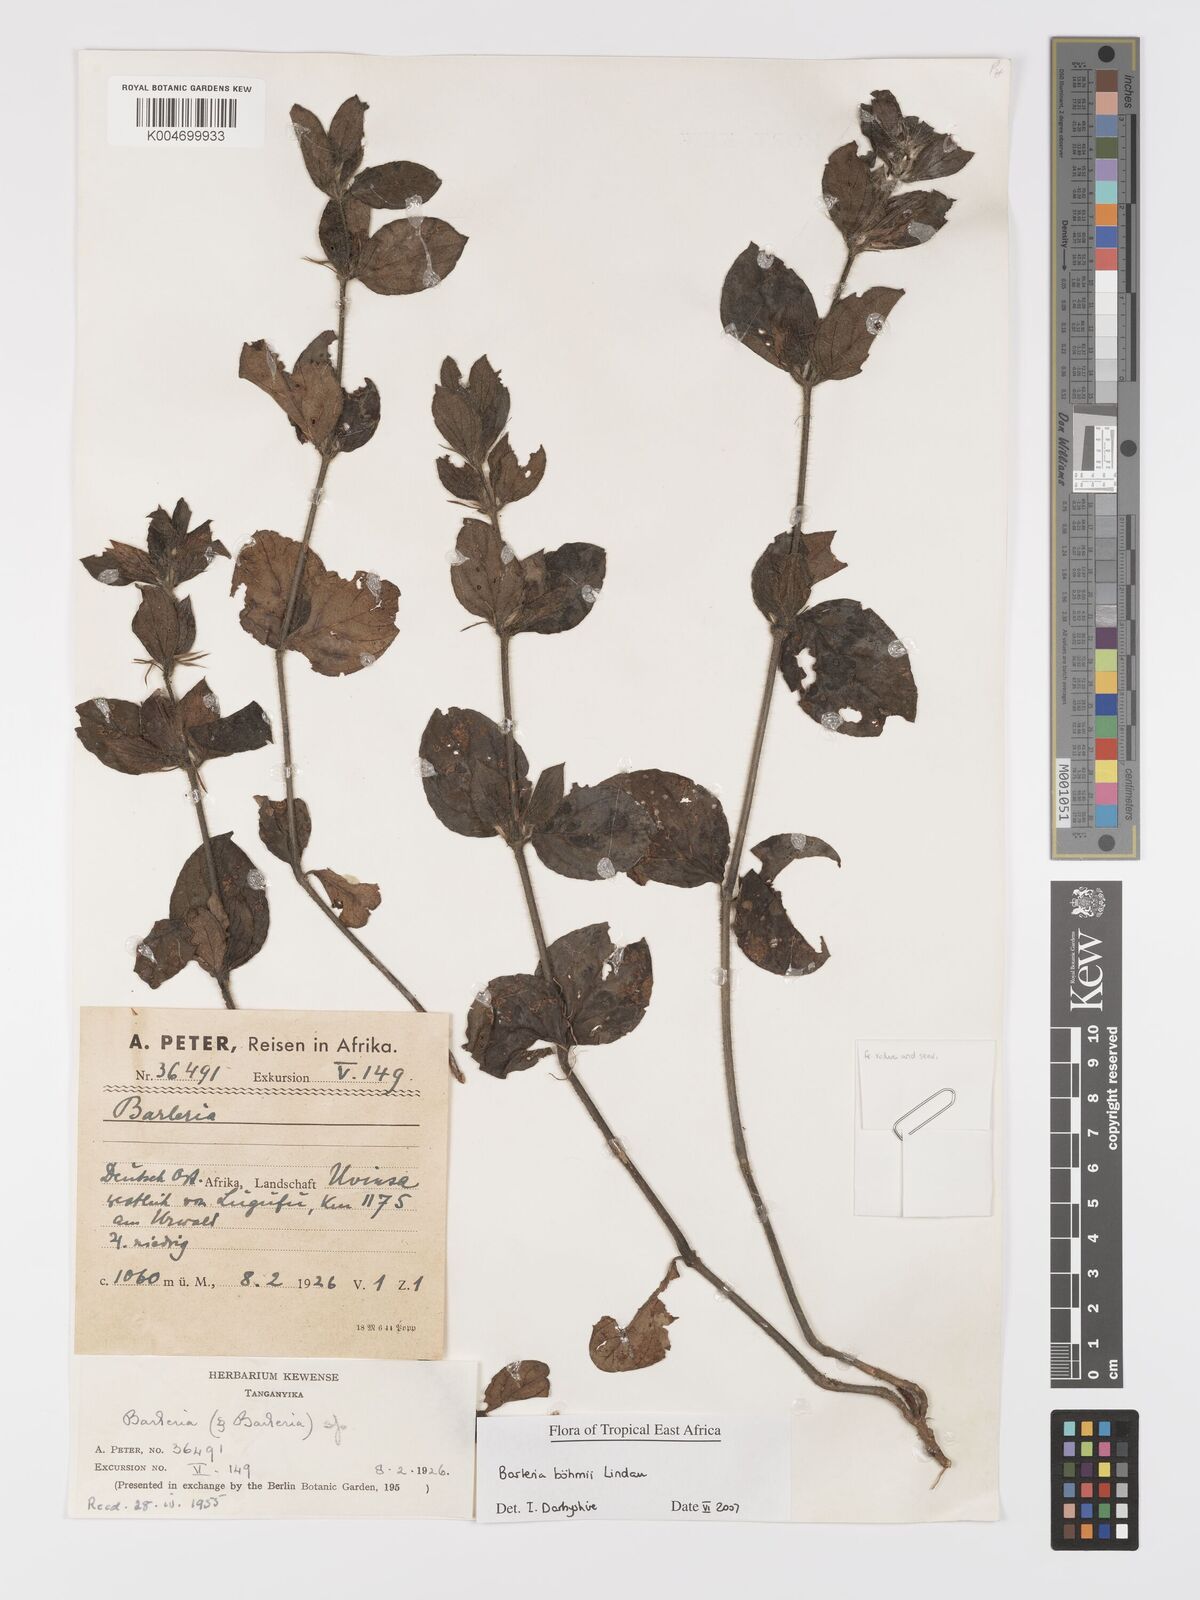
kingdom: Plantae
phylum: Tracheophyta
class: Magnoliopsida
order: Lamiales
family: Acanthaceae
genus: Barleria
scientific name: Barleria boehmii
